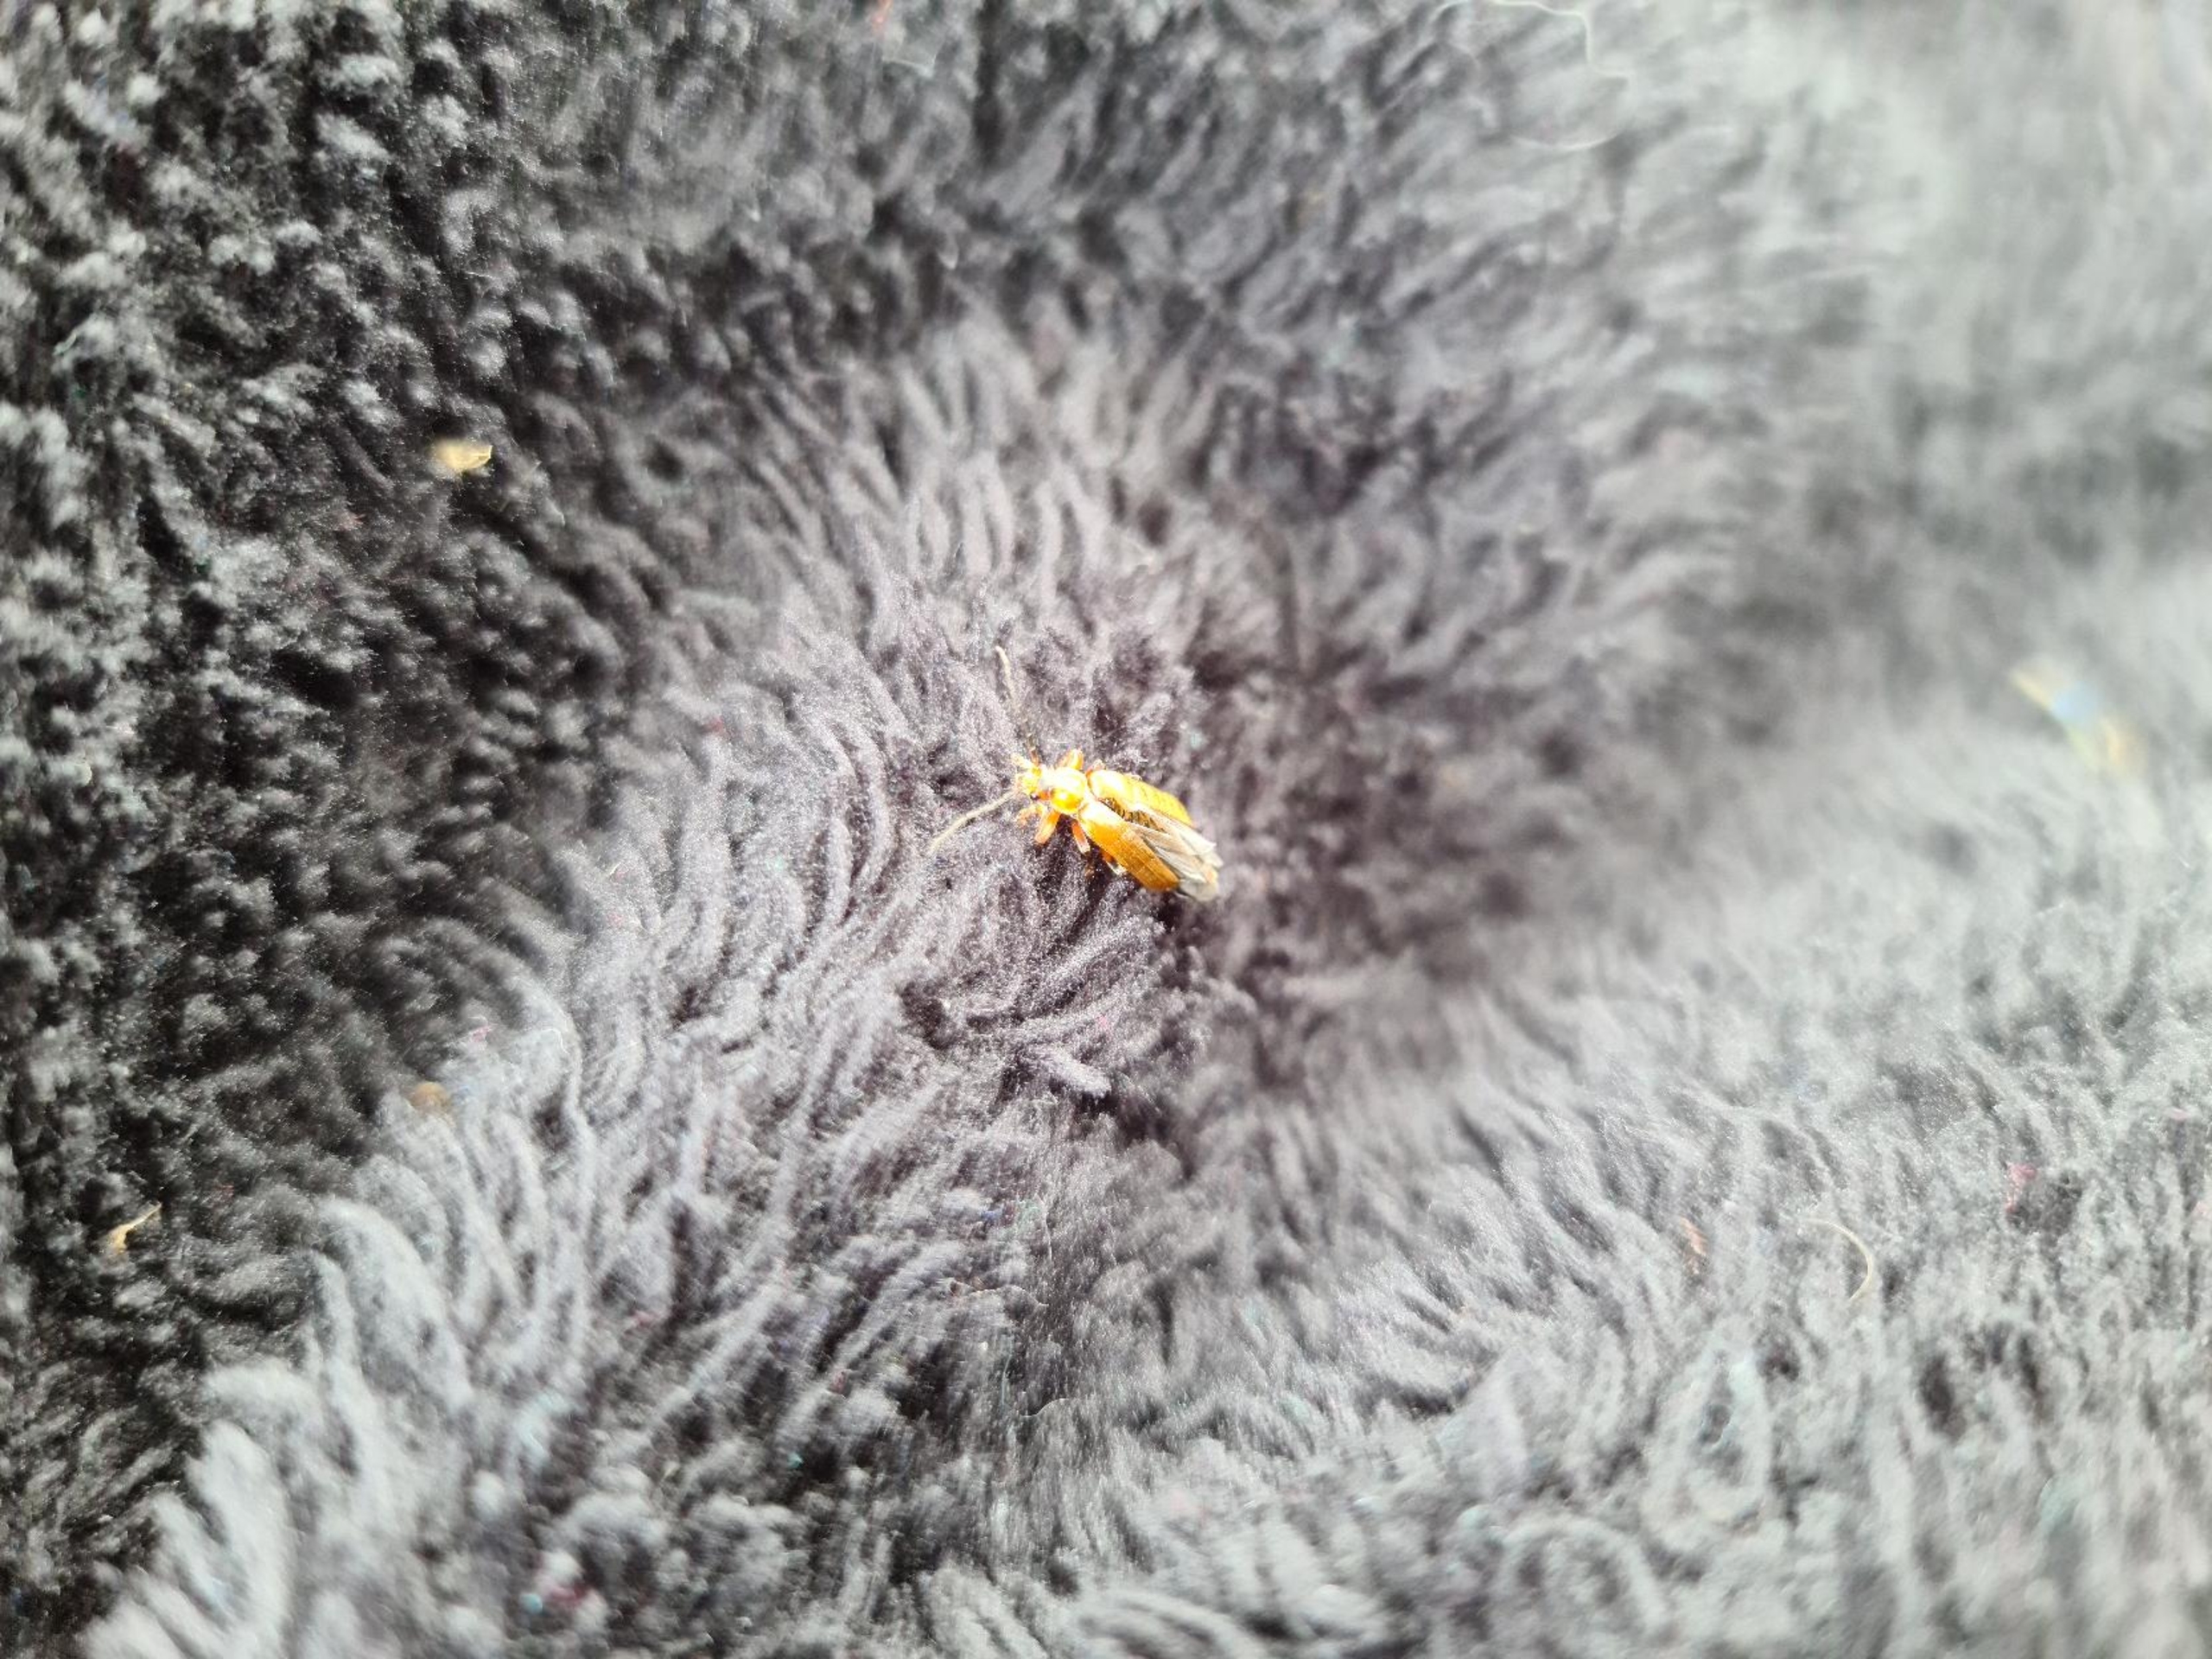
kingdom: Animalia
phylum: Arthropoda
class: Insecta
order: Coleoptera
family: Cantharidae
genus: Cantharis
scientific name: Cantharis livida
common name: Gul blødvinge
